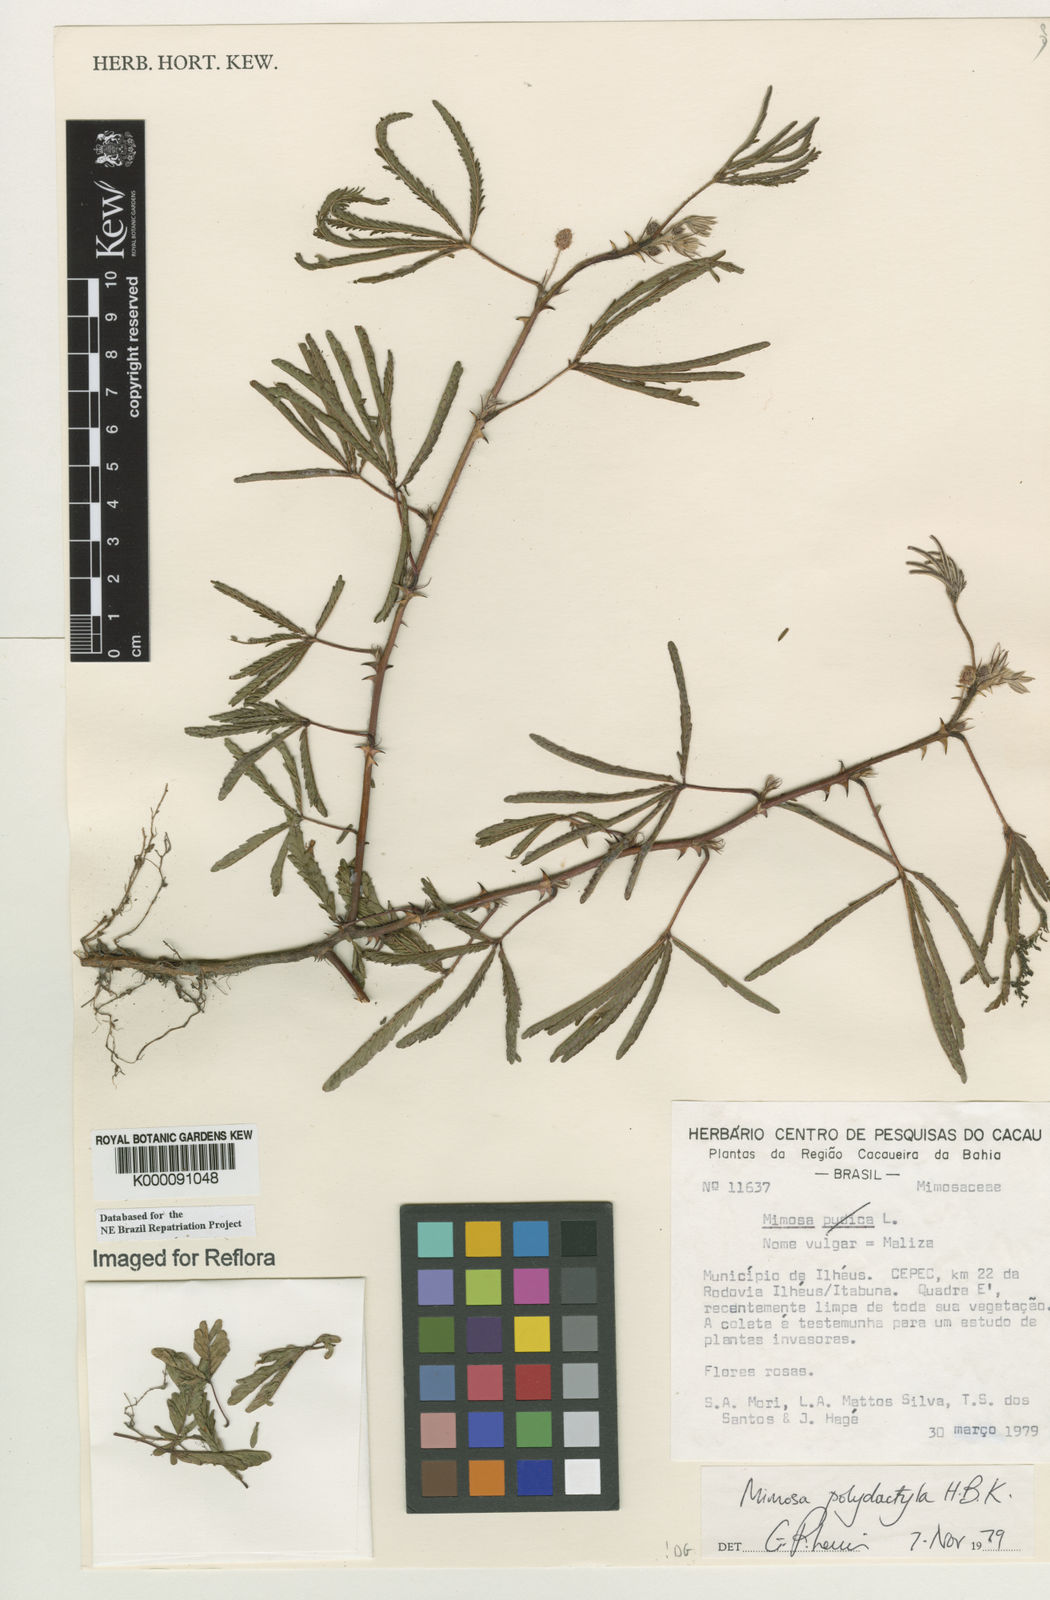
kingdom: Plantae
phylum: Tracheophyta
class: Magnoliopsida
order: Fabales
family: Fabaceae
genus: Mimosa
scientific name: Mimosa
